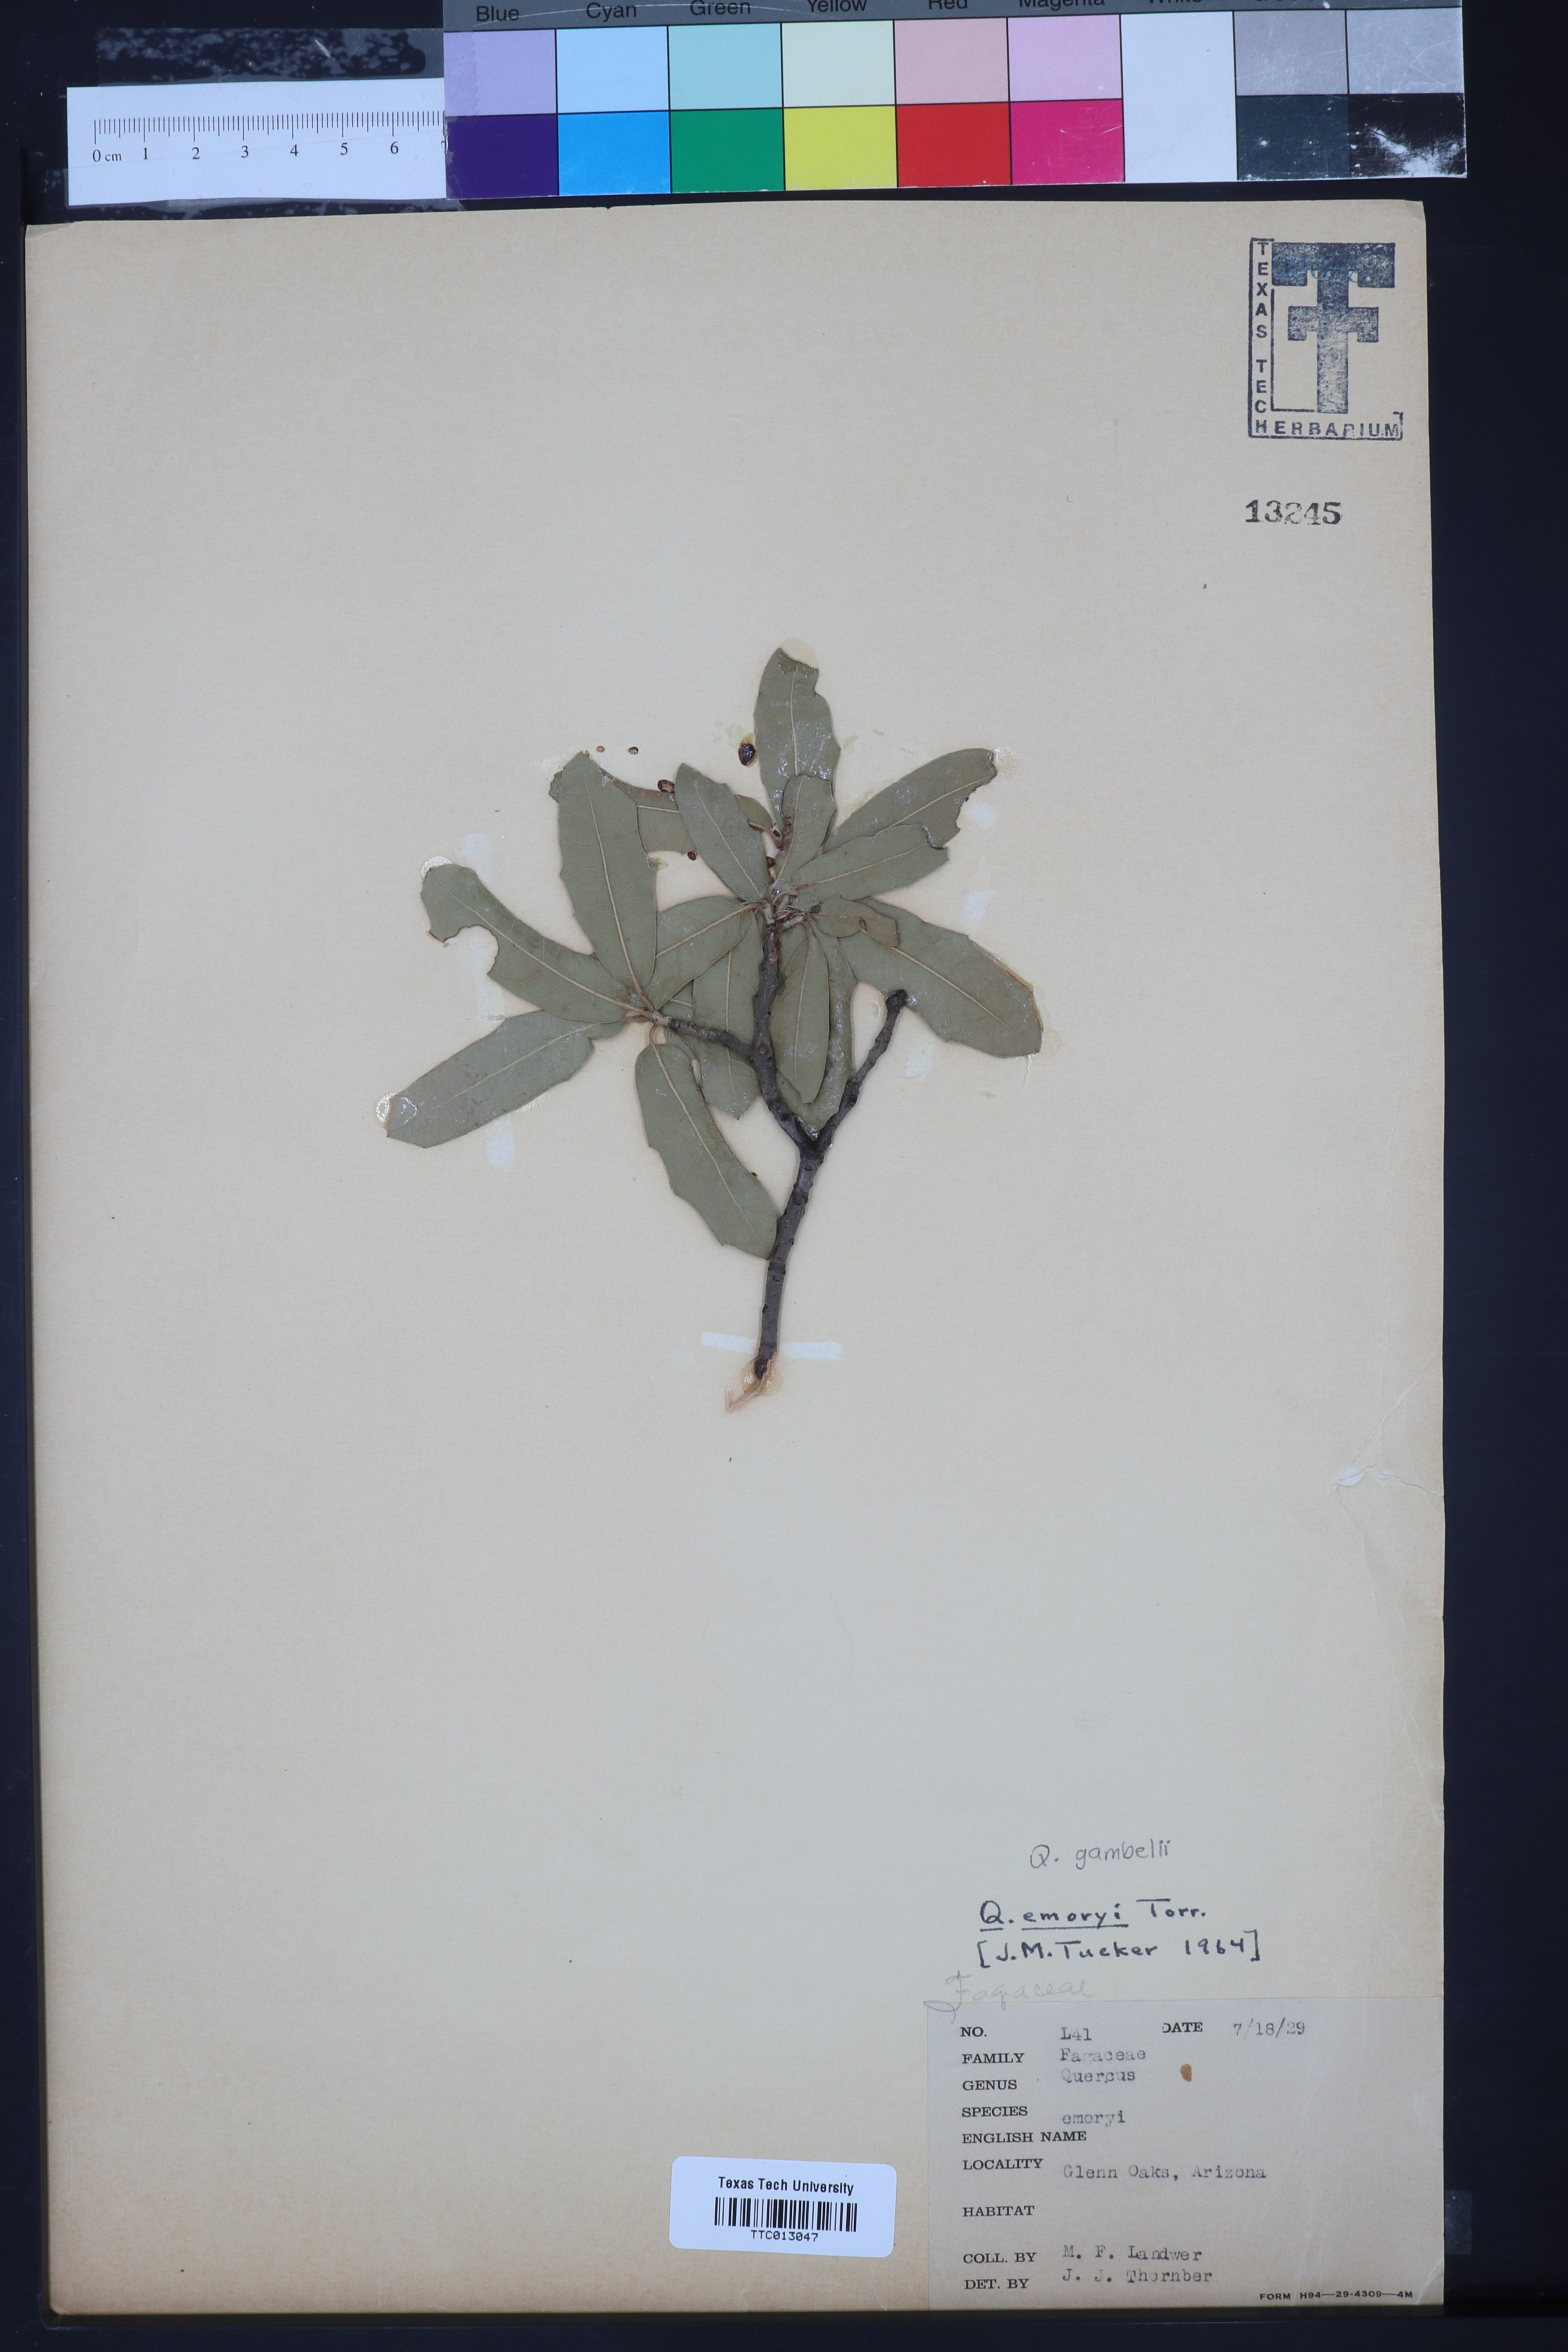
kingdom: Plantae
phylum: Tracheophyta
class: Magnoliopsida
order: Fagales
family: Fagaceae
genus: Quercus
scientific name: Quercus emoryi
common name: Emory oak
